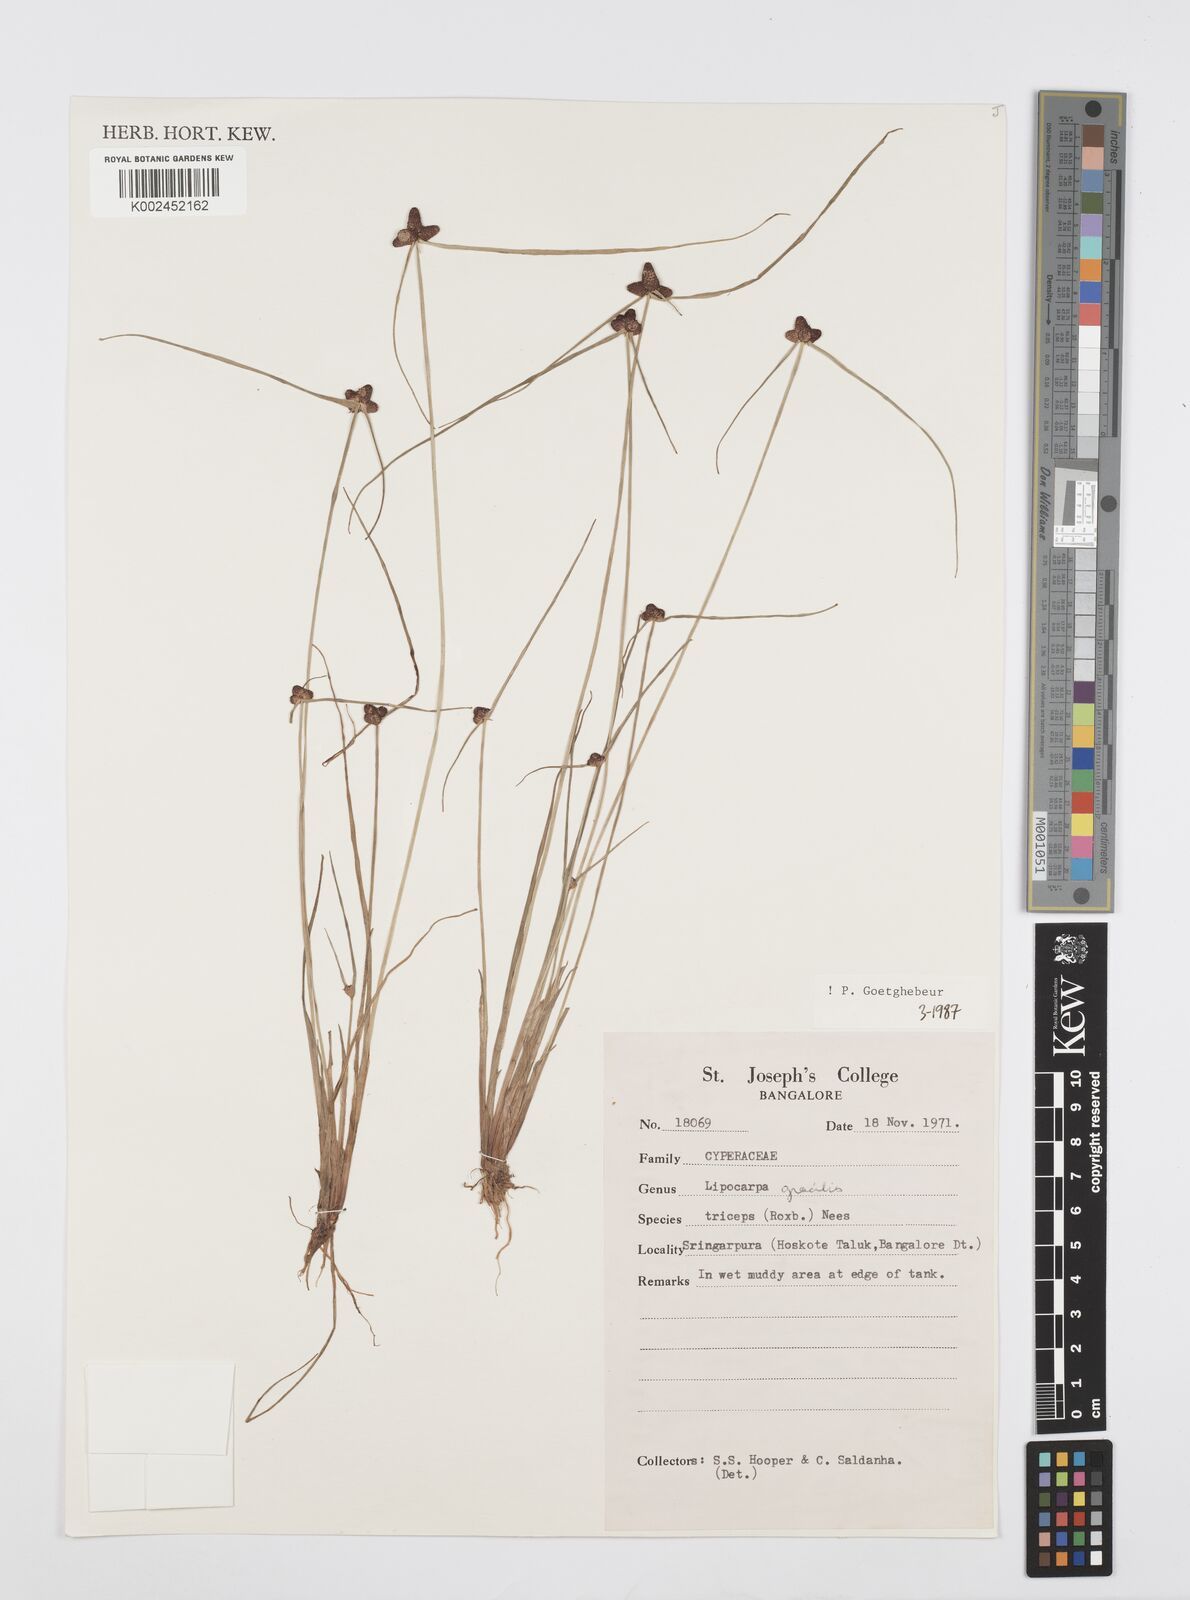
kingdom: Plantae
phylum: Tracheophyta
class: Liliopsida
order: Poales
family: Cyperaceae
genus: Cyperus
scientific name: Cyperus sphacelatus
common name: Roadside flatsedge
